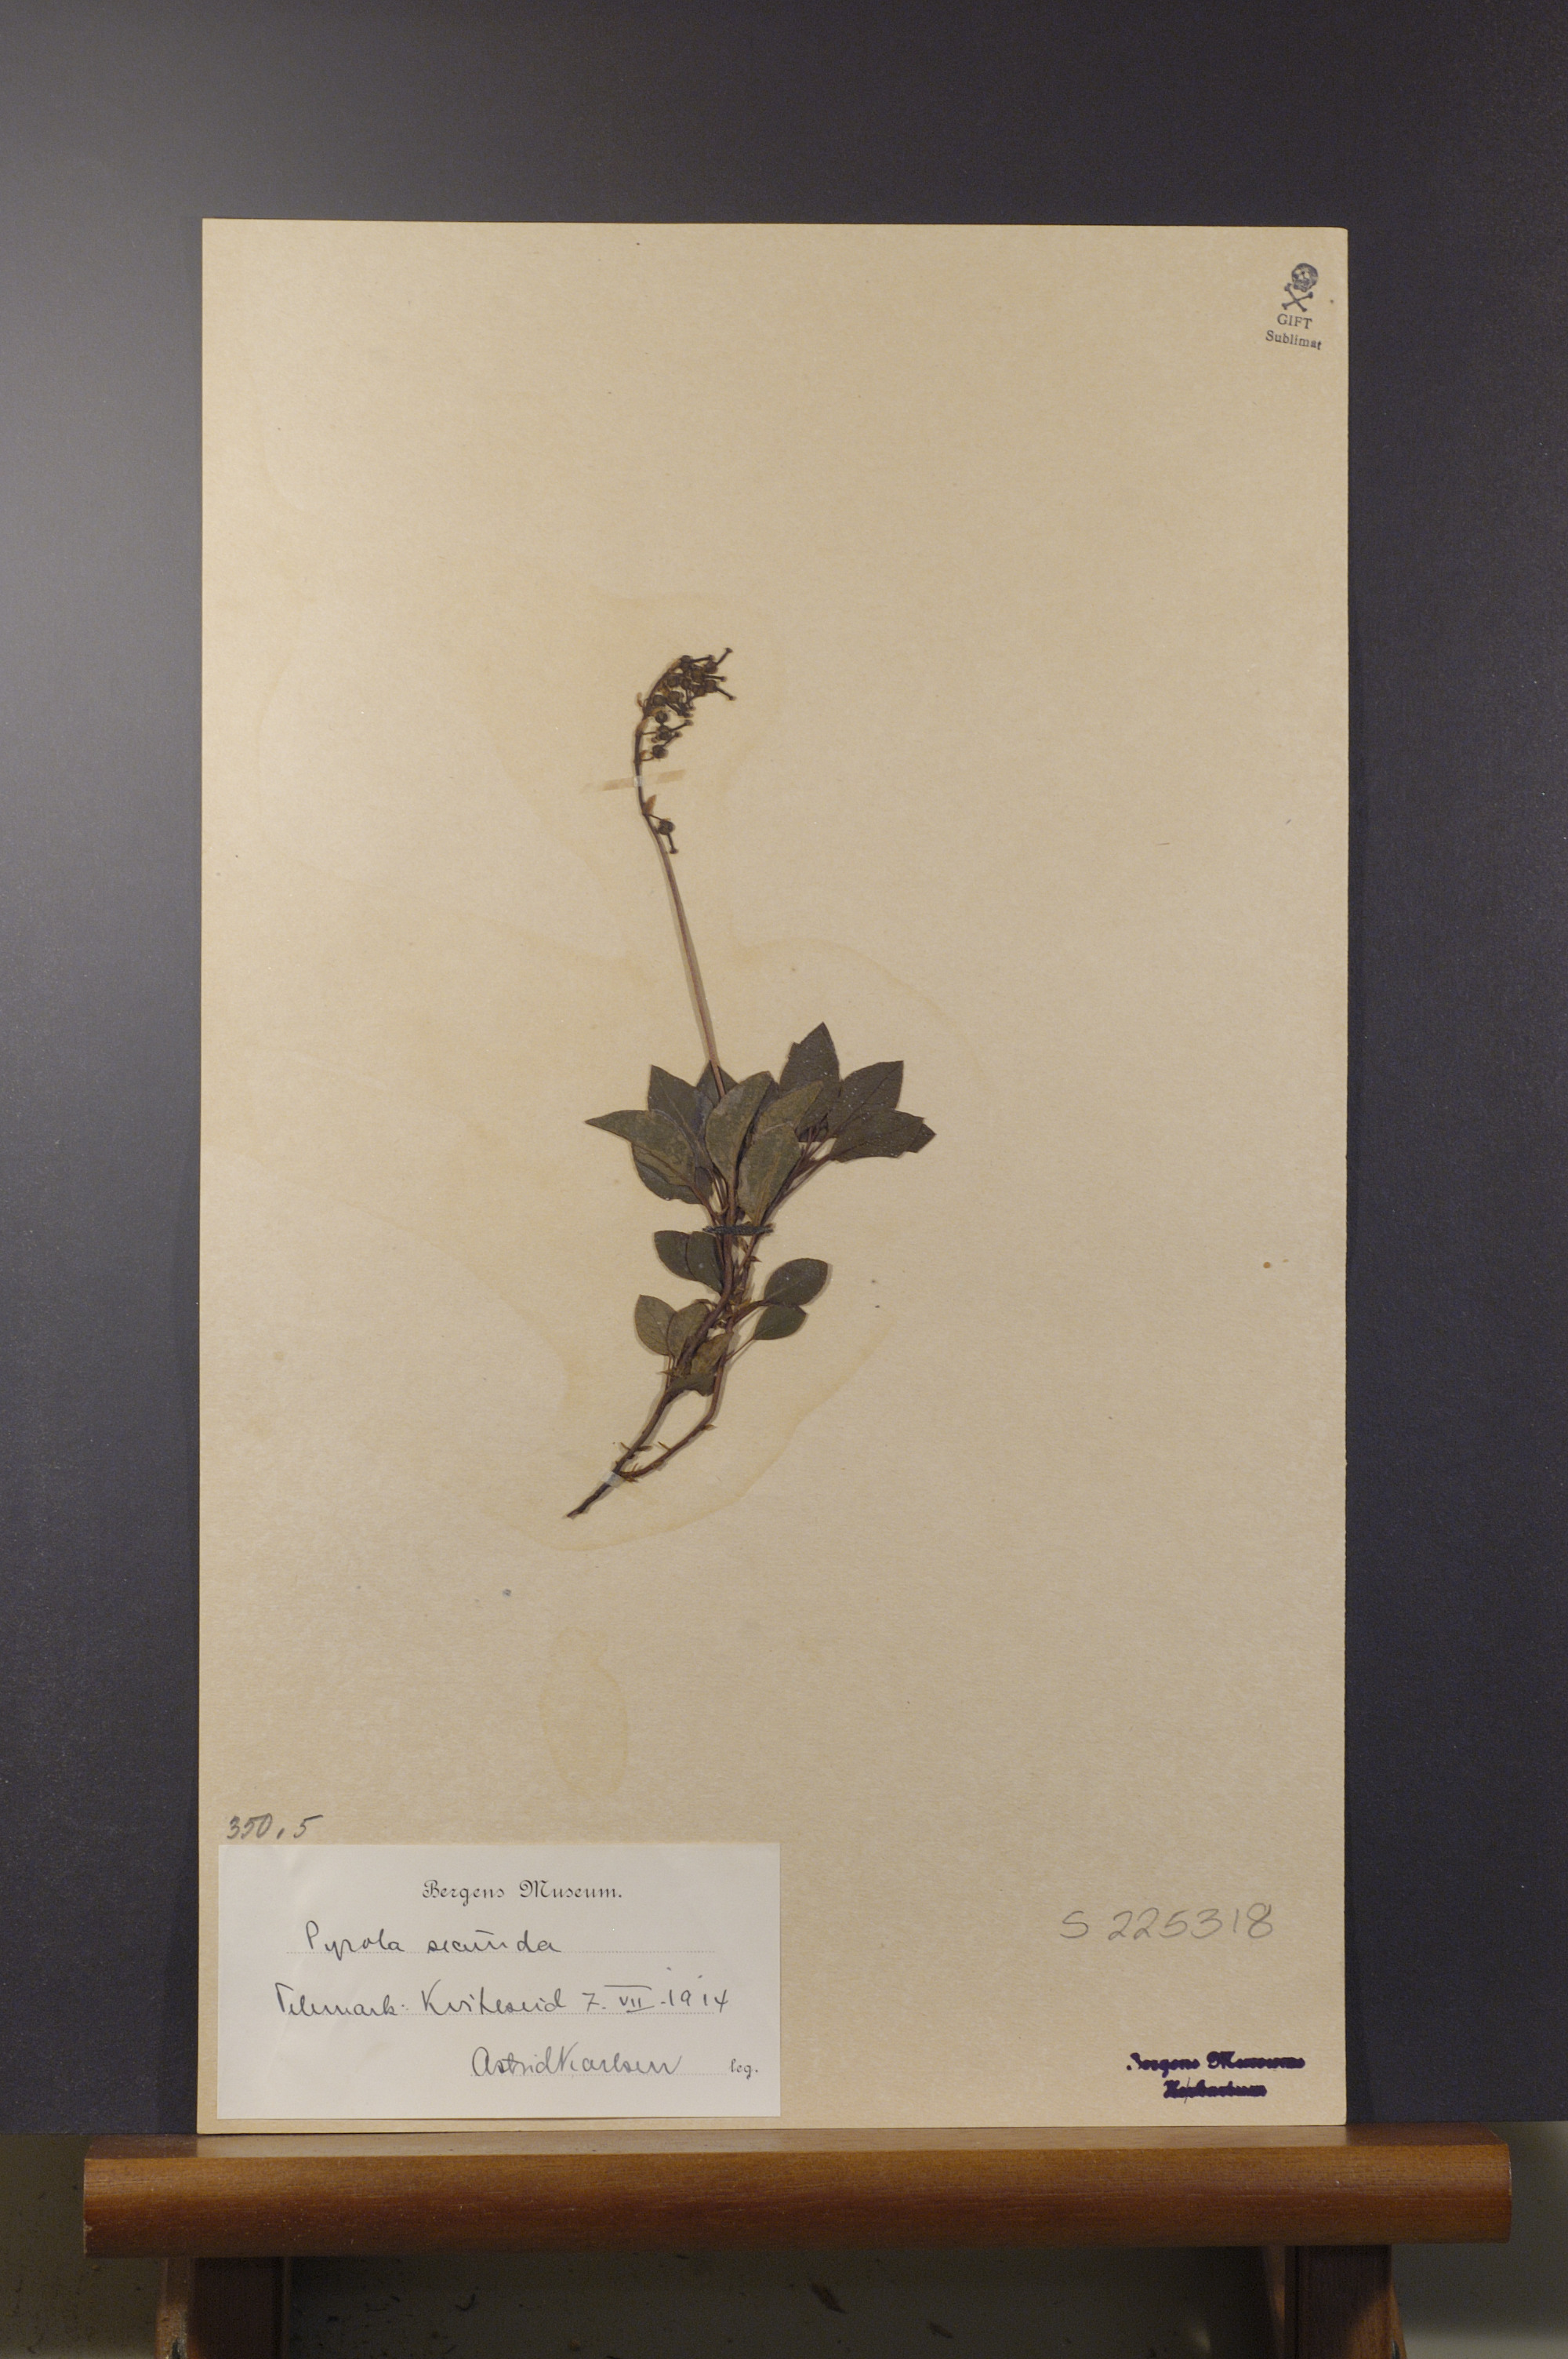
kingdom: Plantae
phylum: Tracheophyta
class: Magnoliopsida
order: Ericales
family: Ericaceae
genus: Orthilia
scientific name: Orthilia secunda
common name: One-sided orthilia
